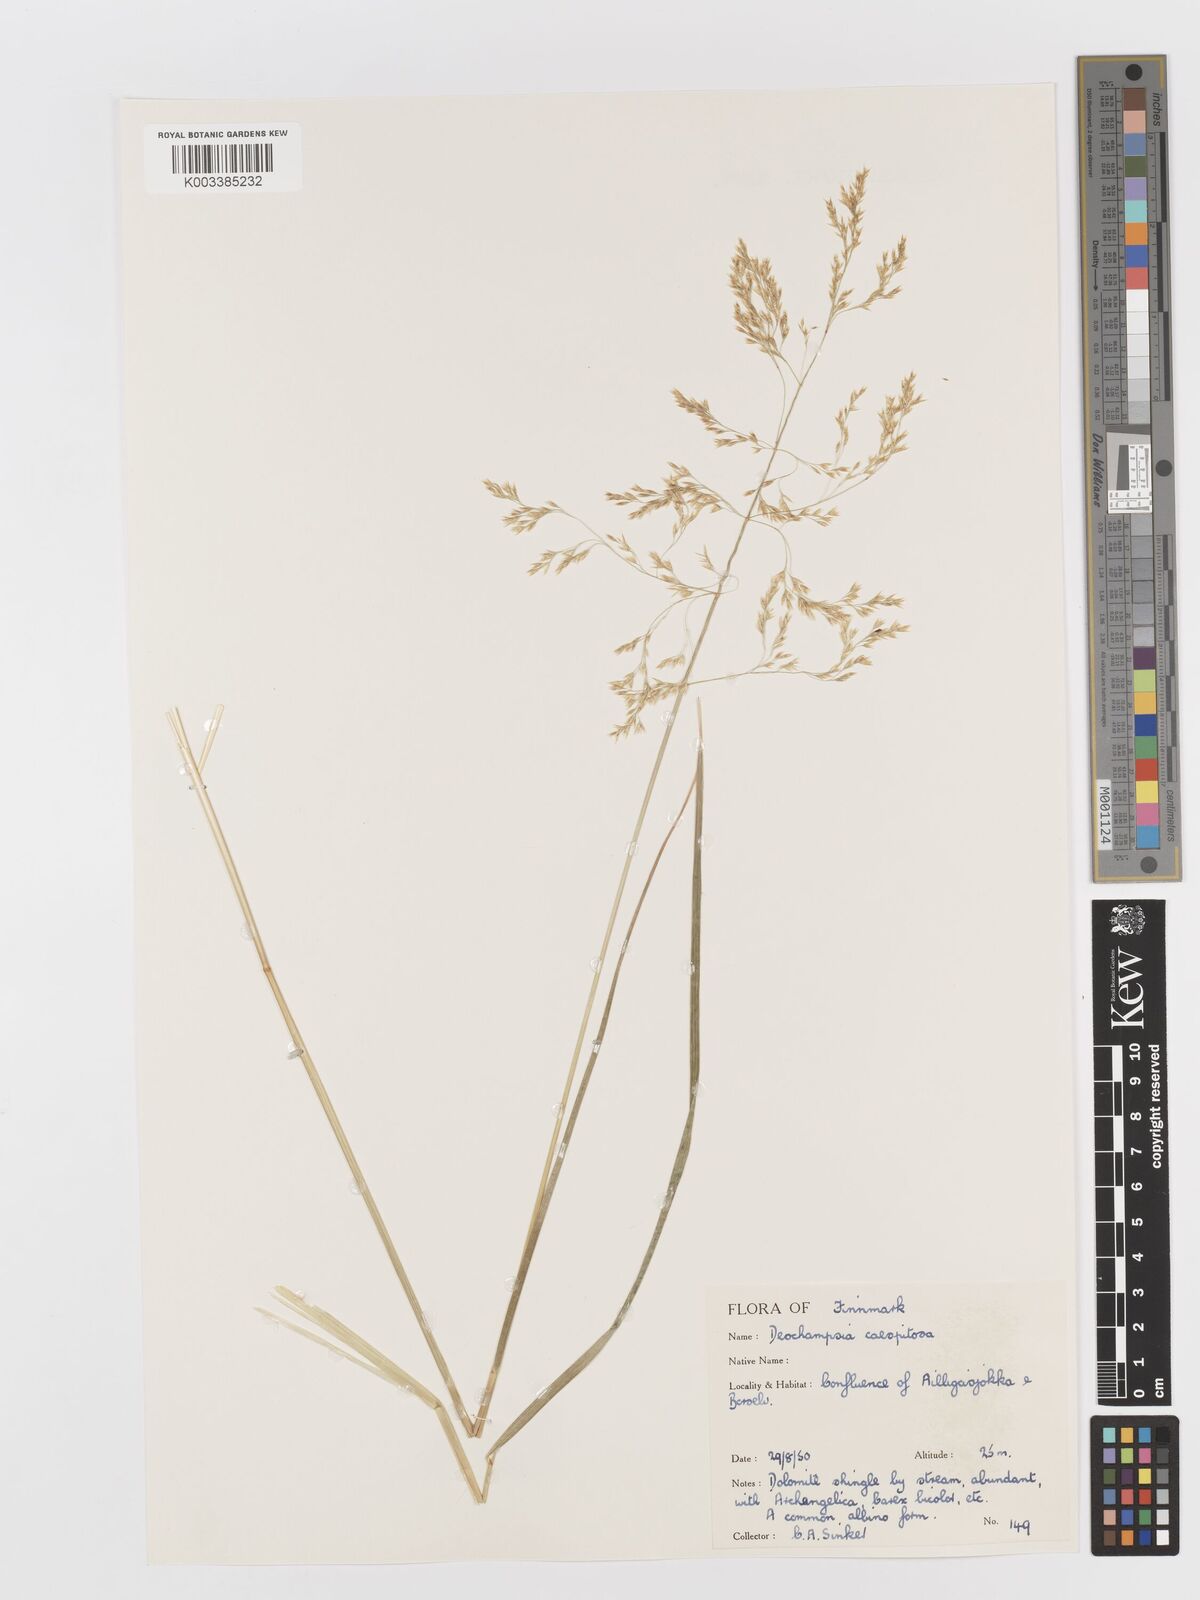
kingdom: Plantae
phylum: Tracheophyta
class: Liliopsida
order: Poales
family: Poaceae
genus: Deschampsia
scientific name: Deschampsia cespitosa
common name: Tufted hair-grass
